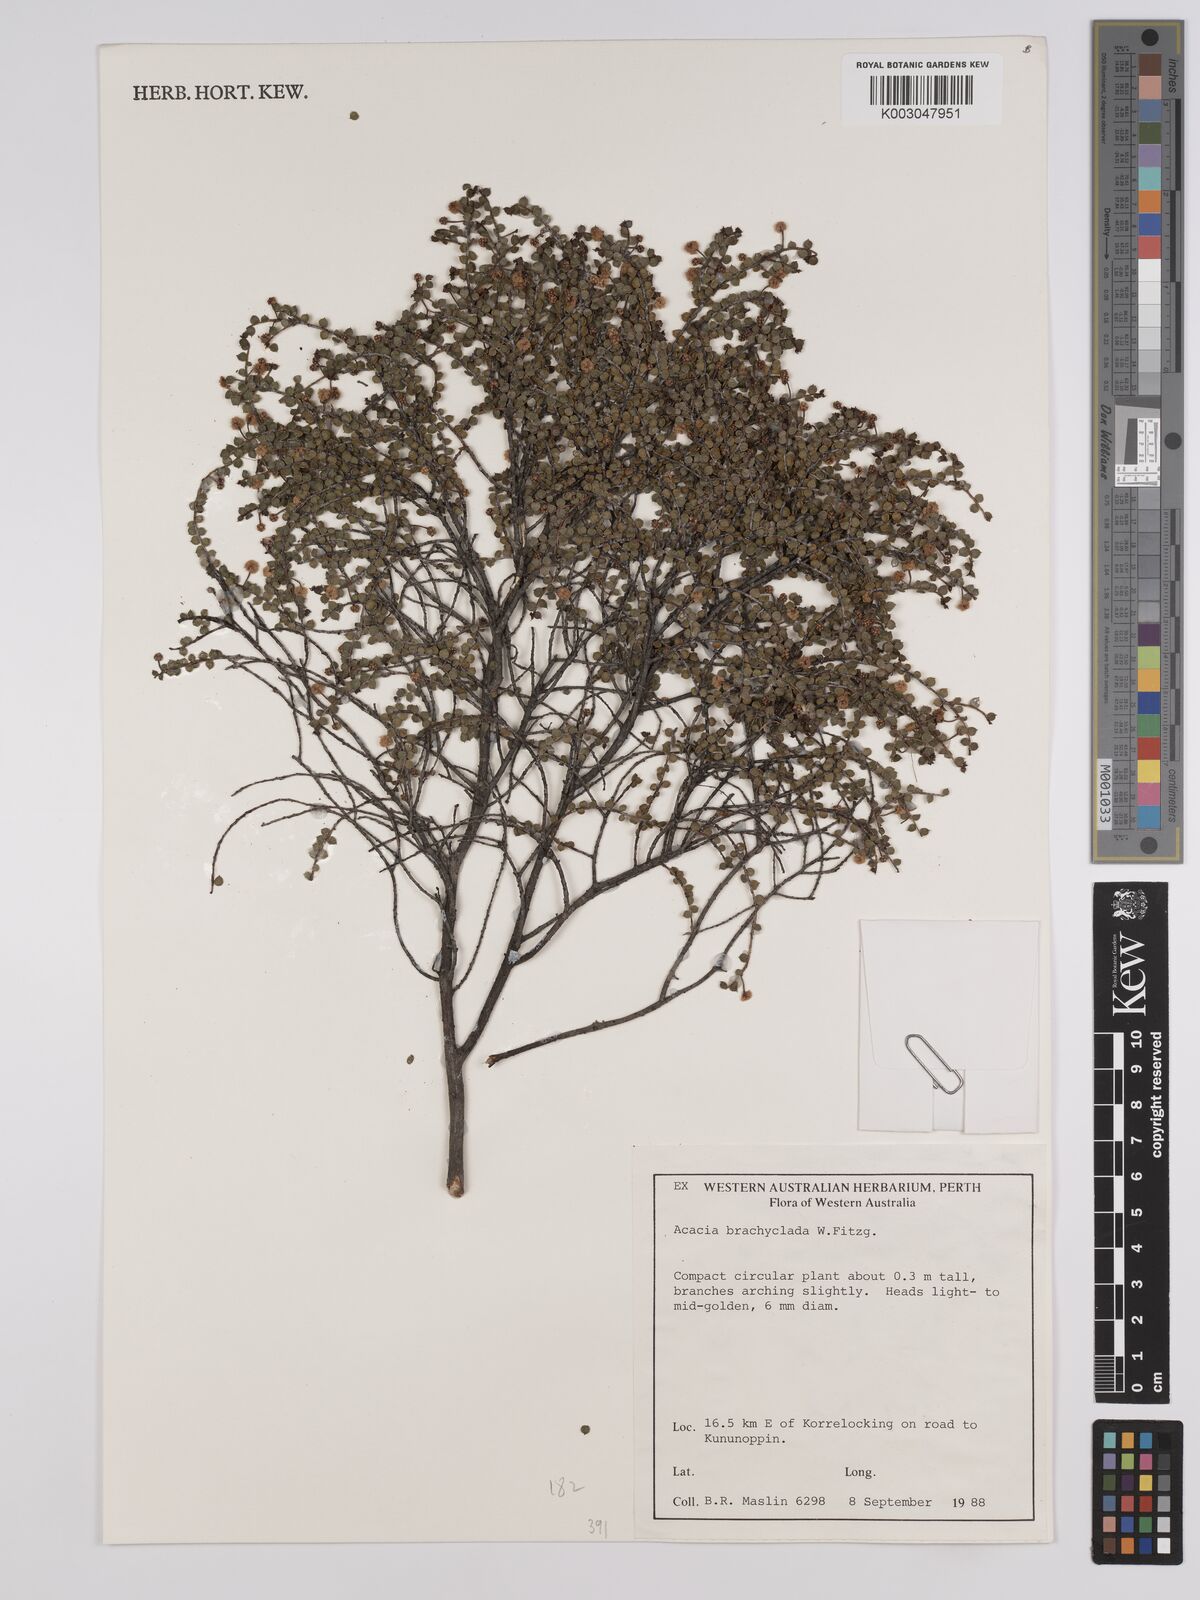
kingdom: Plantae
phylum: Tracheophyta
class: Magnoliopsida
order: Fabales
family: Fabaceae
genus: Acacia
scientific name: Acacia brachyclada
